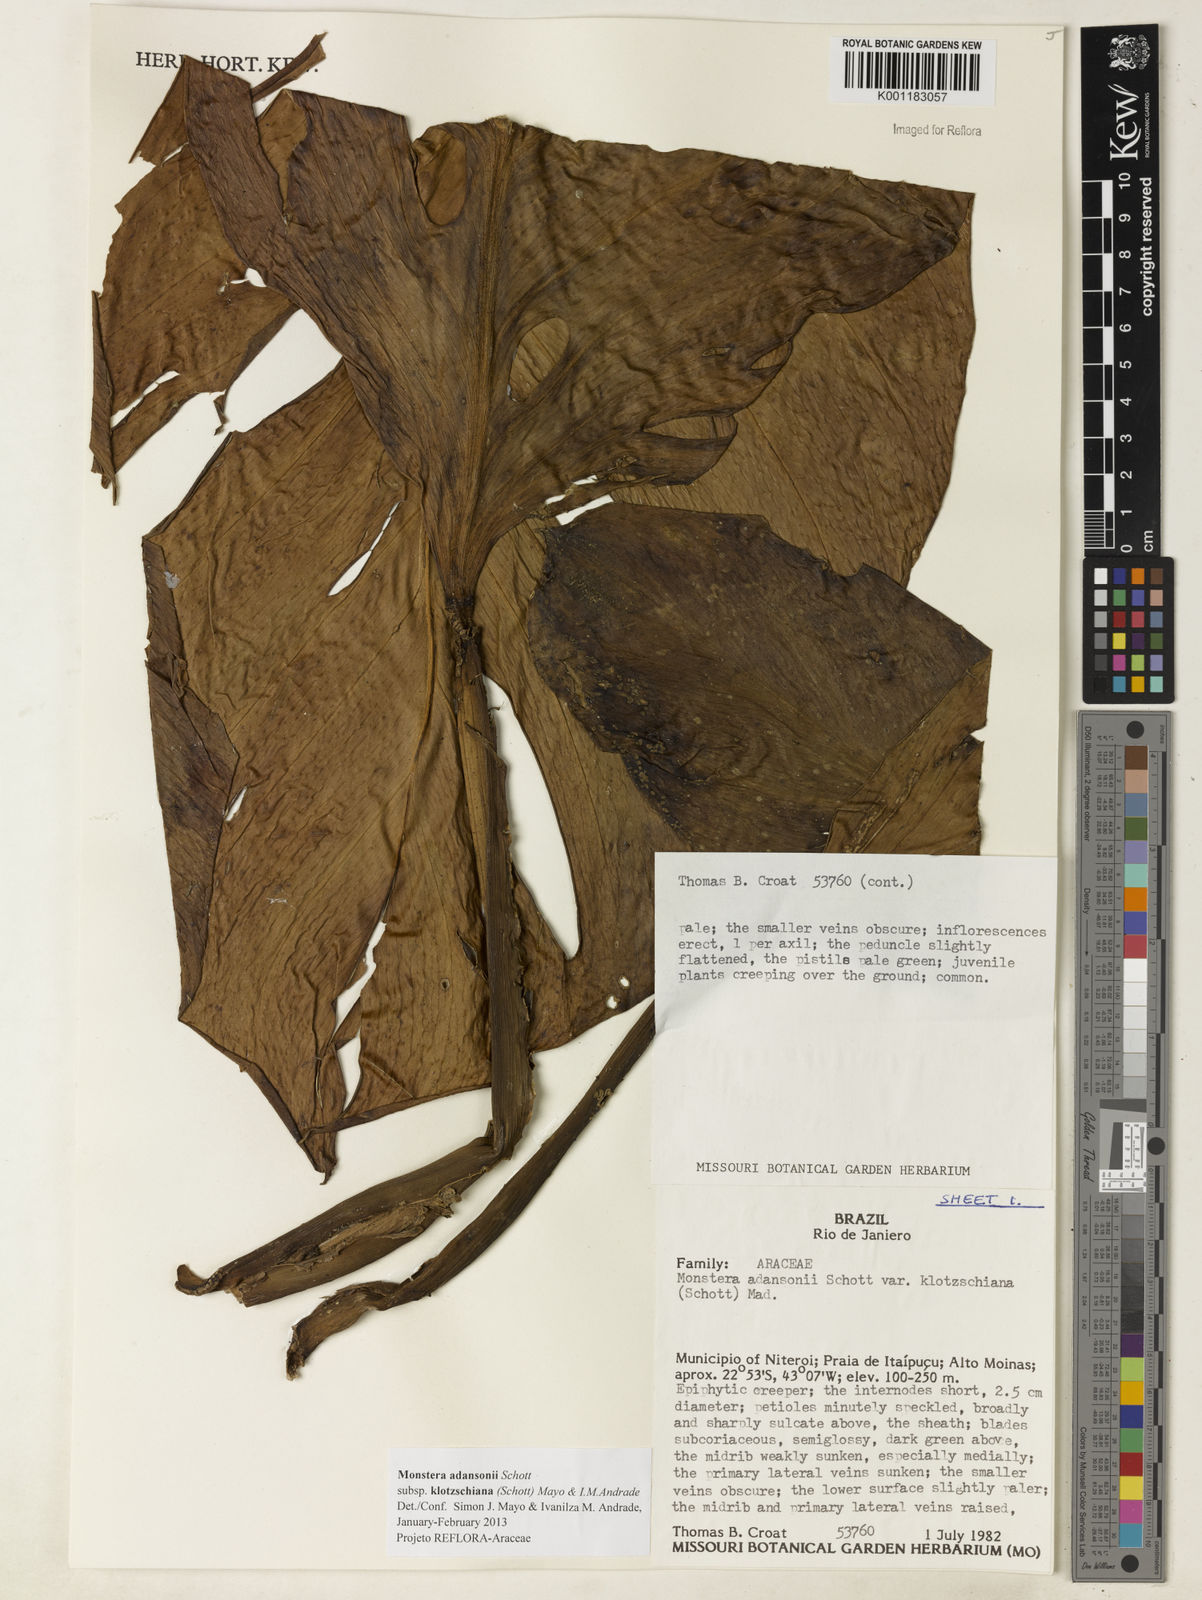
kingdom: Plantae
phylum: Tracheophyta
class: Liliopsida
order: Alismatales
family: Araceae
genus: Monstera
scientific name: Monstera adansonii
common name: Tarovine
